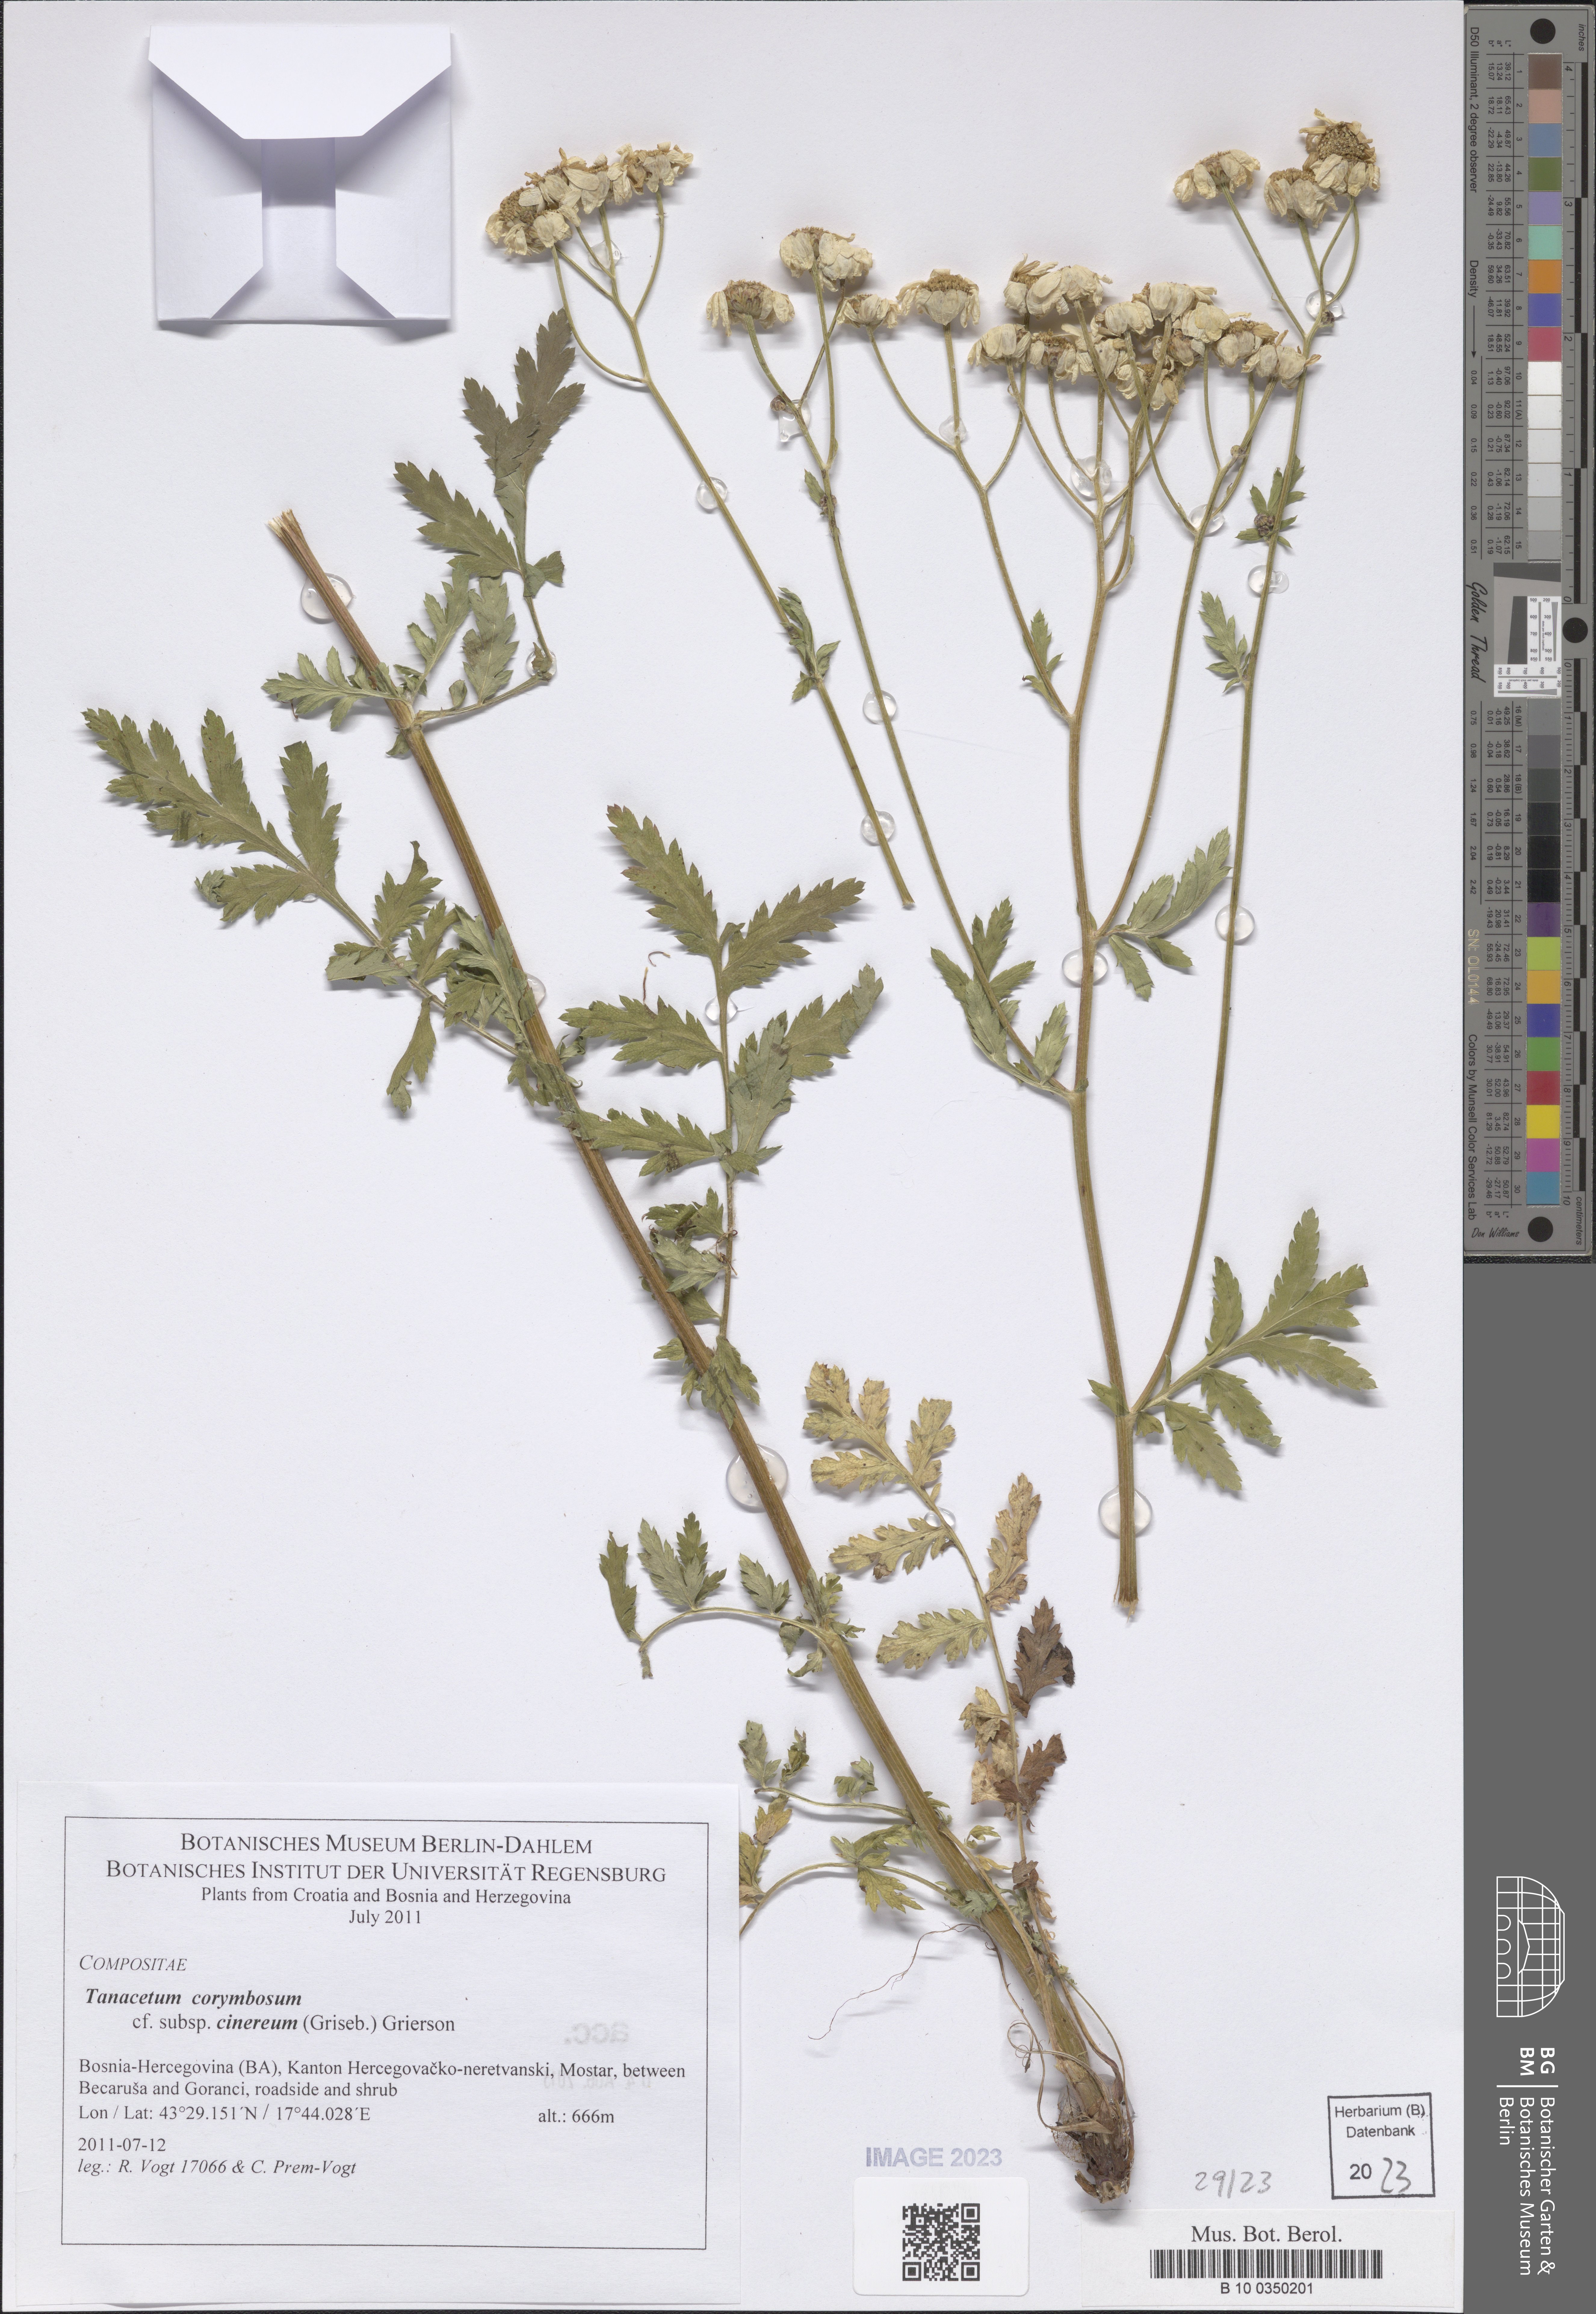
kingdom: Plantae
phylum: Tracheophyta
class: Magnoliopsida
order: Asterales
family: Asteraceae
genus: Tanacetum
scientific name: Tanacetum corymbosum
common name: Scentless feverfew
